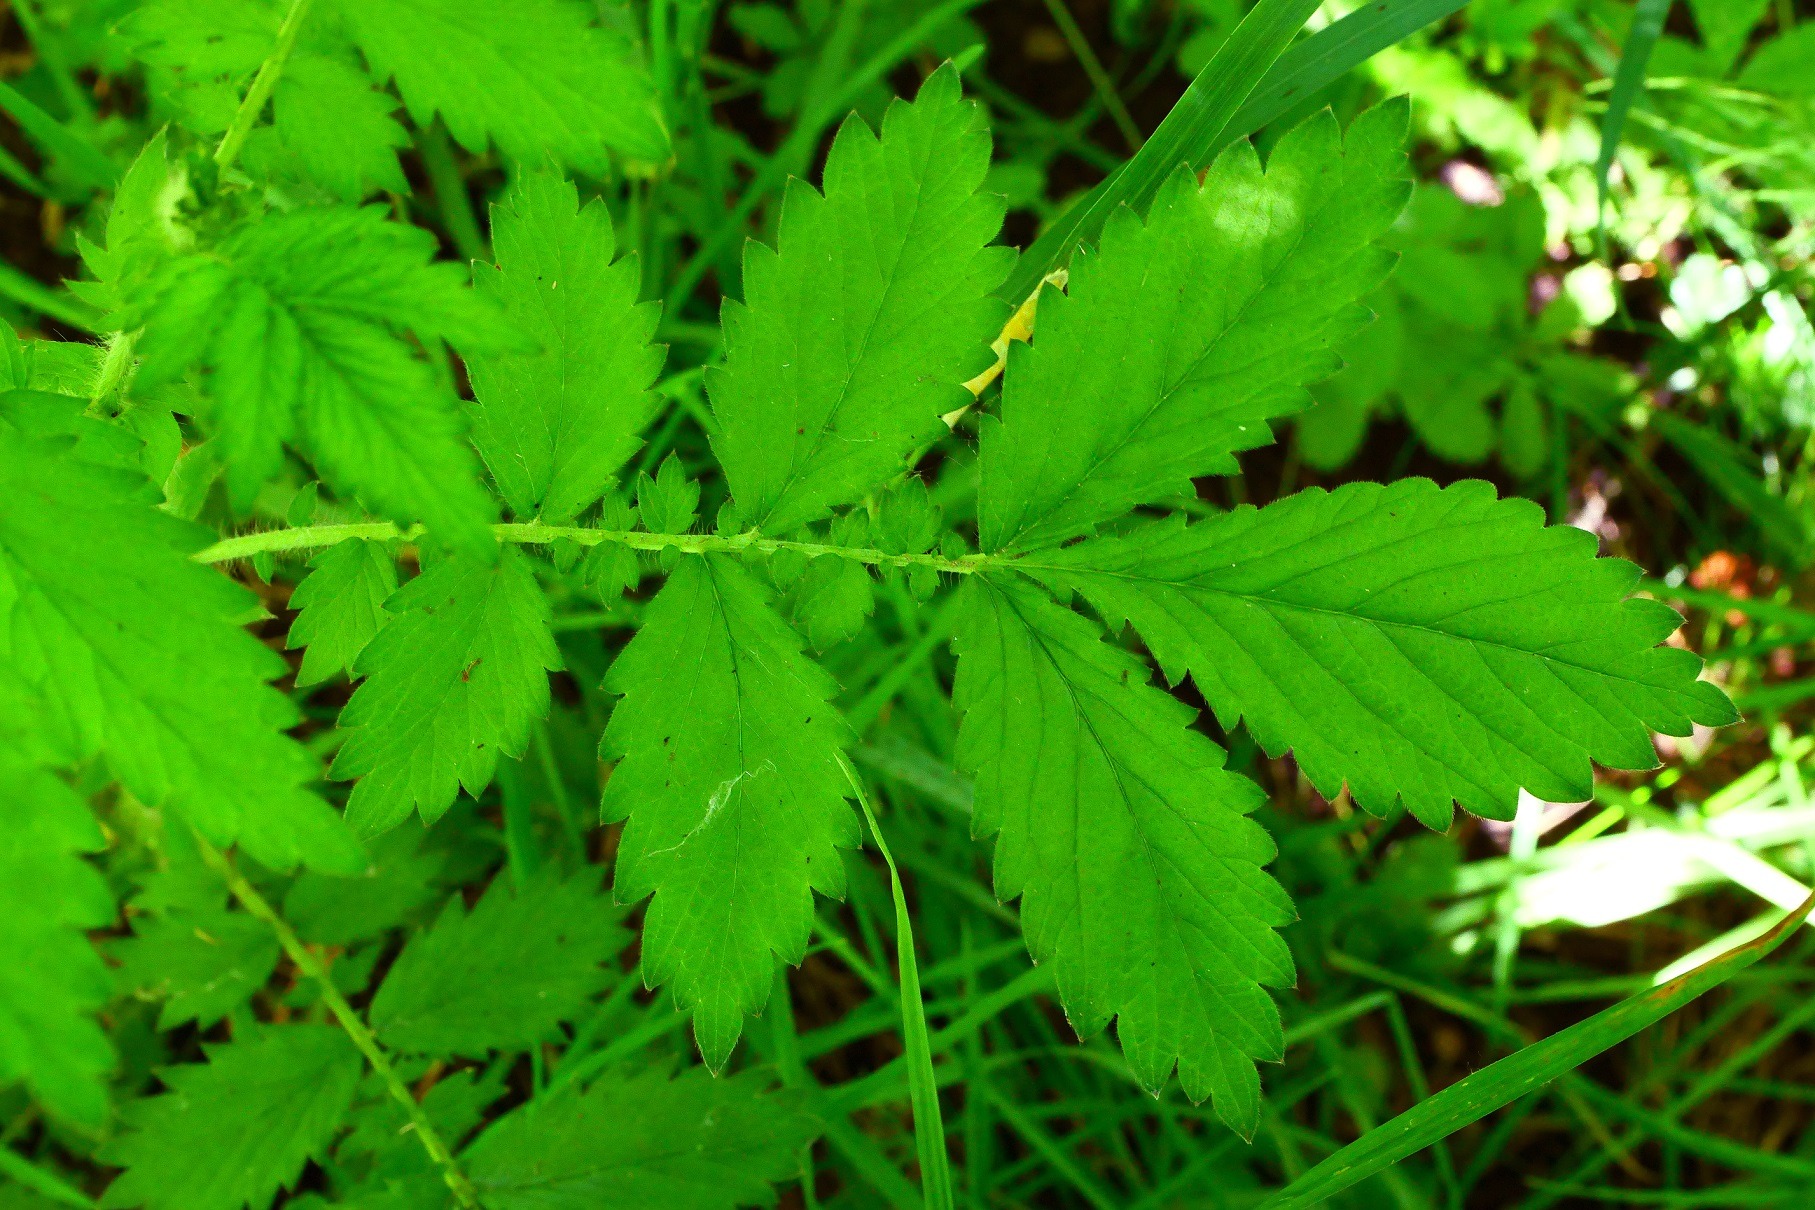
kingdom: Plantae
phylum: Tracheophyta
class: Magnoliopsida
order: Rosales
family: Rosaceae
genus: Agrimonia
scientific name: Agrimonia procera
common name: Vellugtende agermåne
